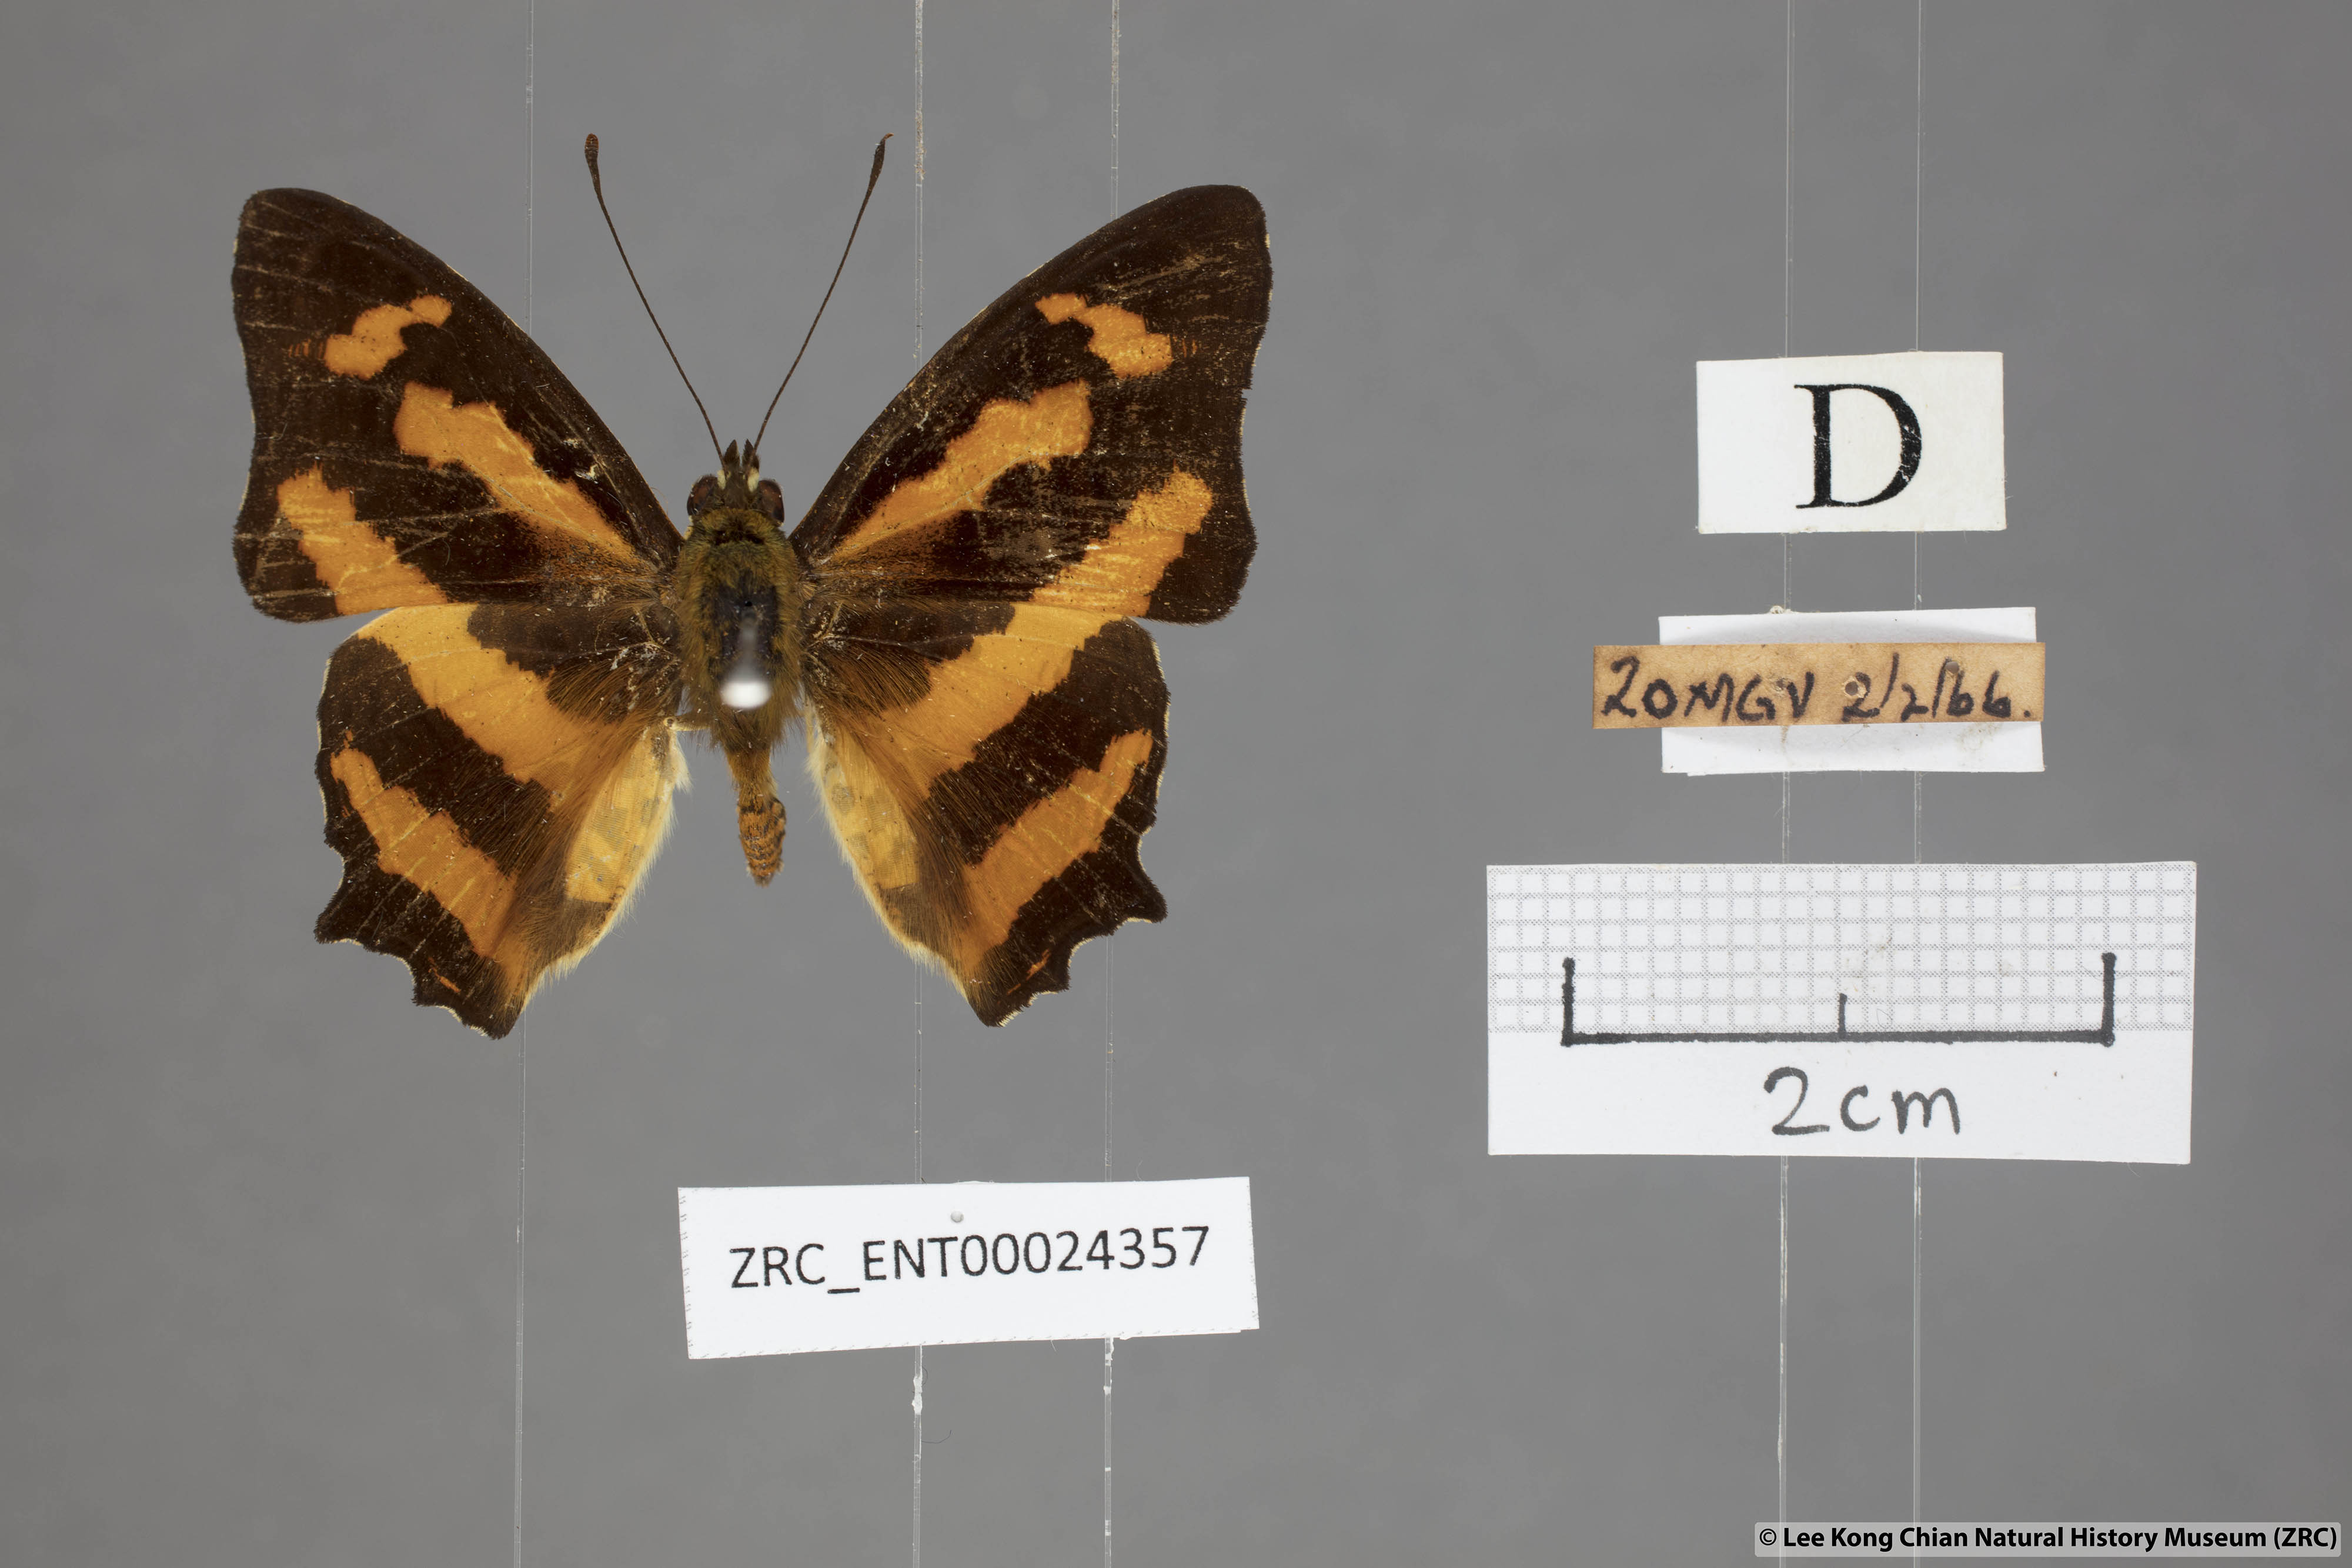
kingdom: Animalia
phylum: Arthropoda
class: Insecta
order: Lepidoptera
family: Nymphalidae
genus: Symbrenthia
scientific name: Symbrenthia hypselis
